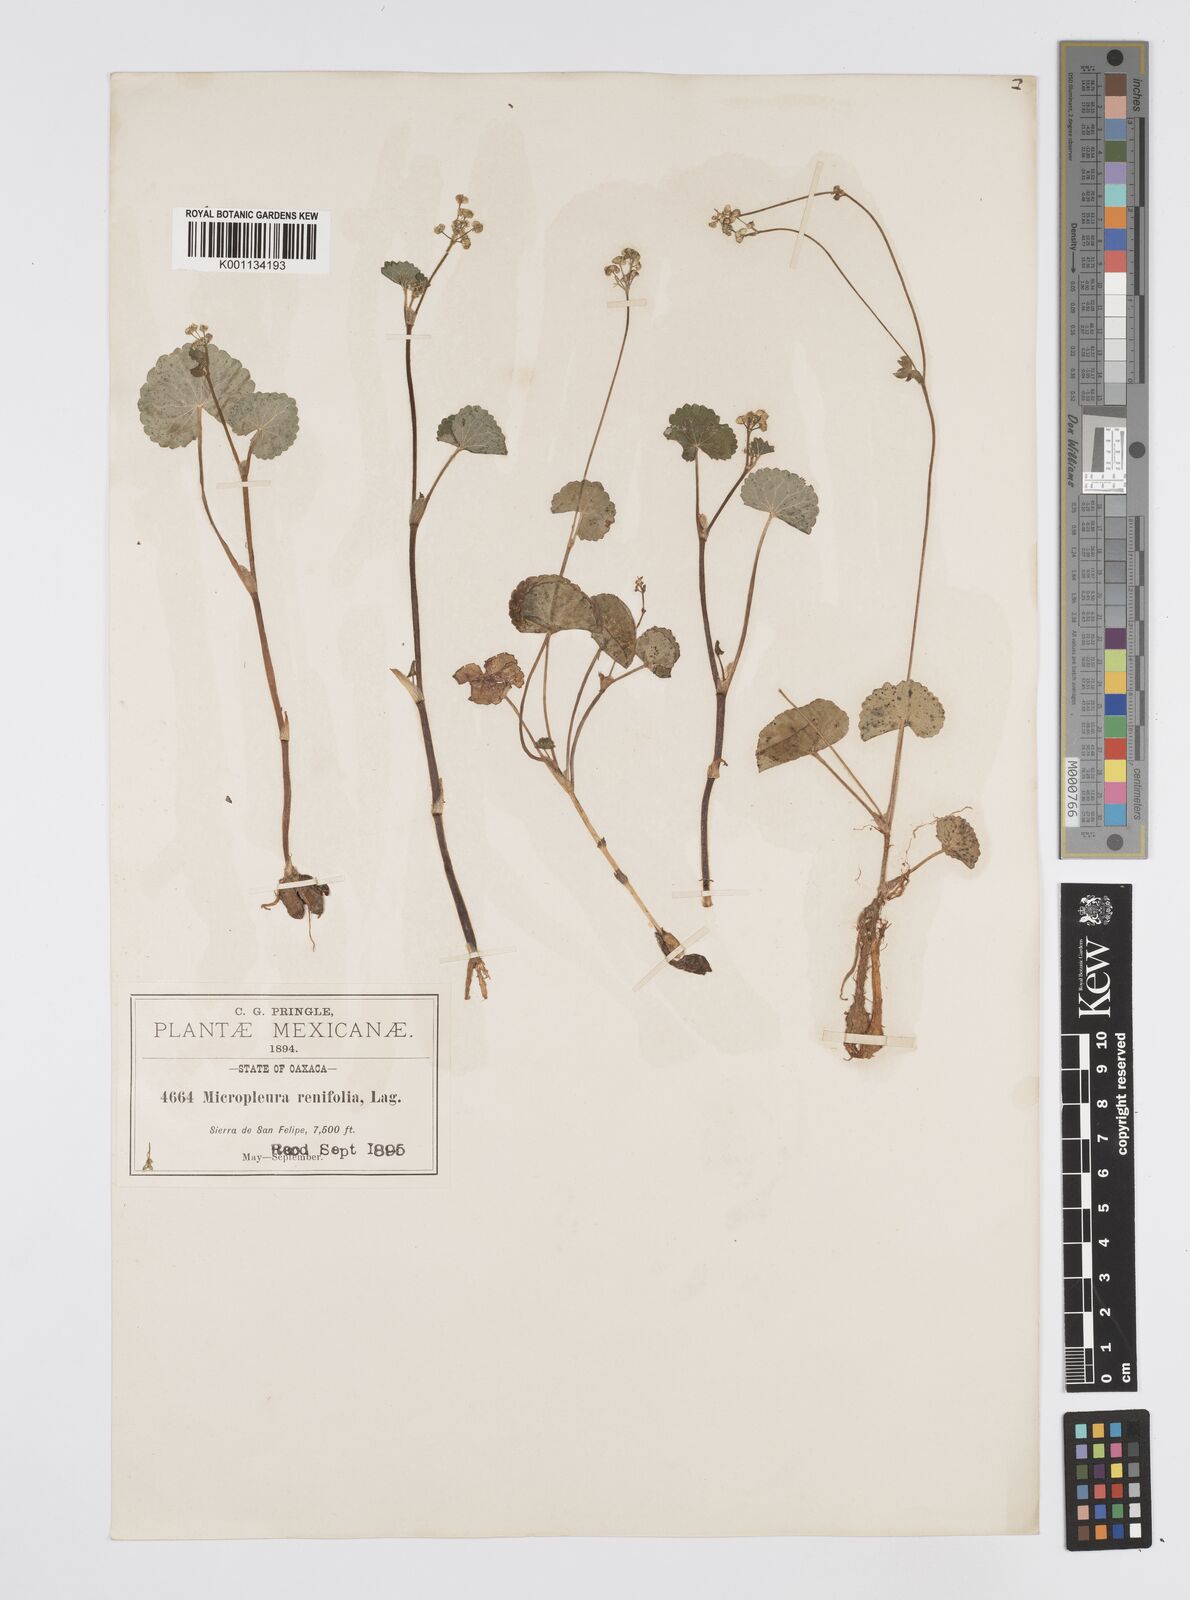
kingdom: Plantae
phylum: Tracheophyta
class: Magnoliopsida
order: Apiales
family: Apiaceae
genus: Micropleura
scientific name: Micropleura renifolia
